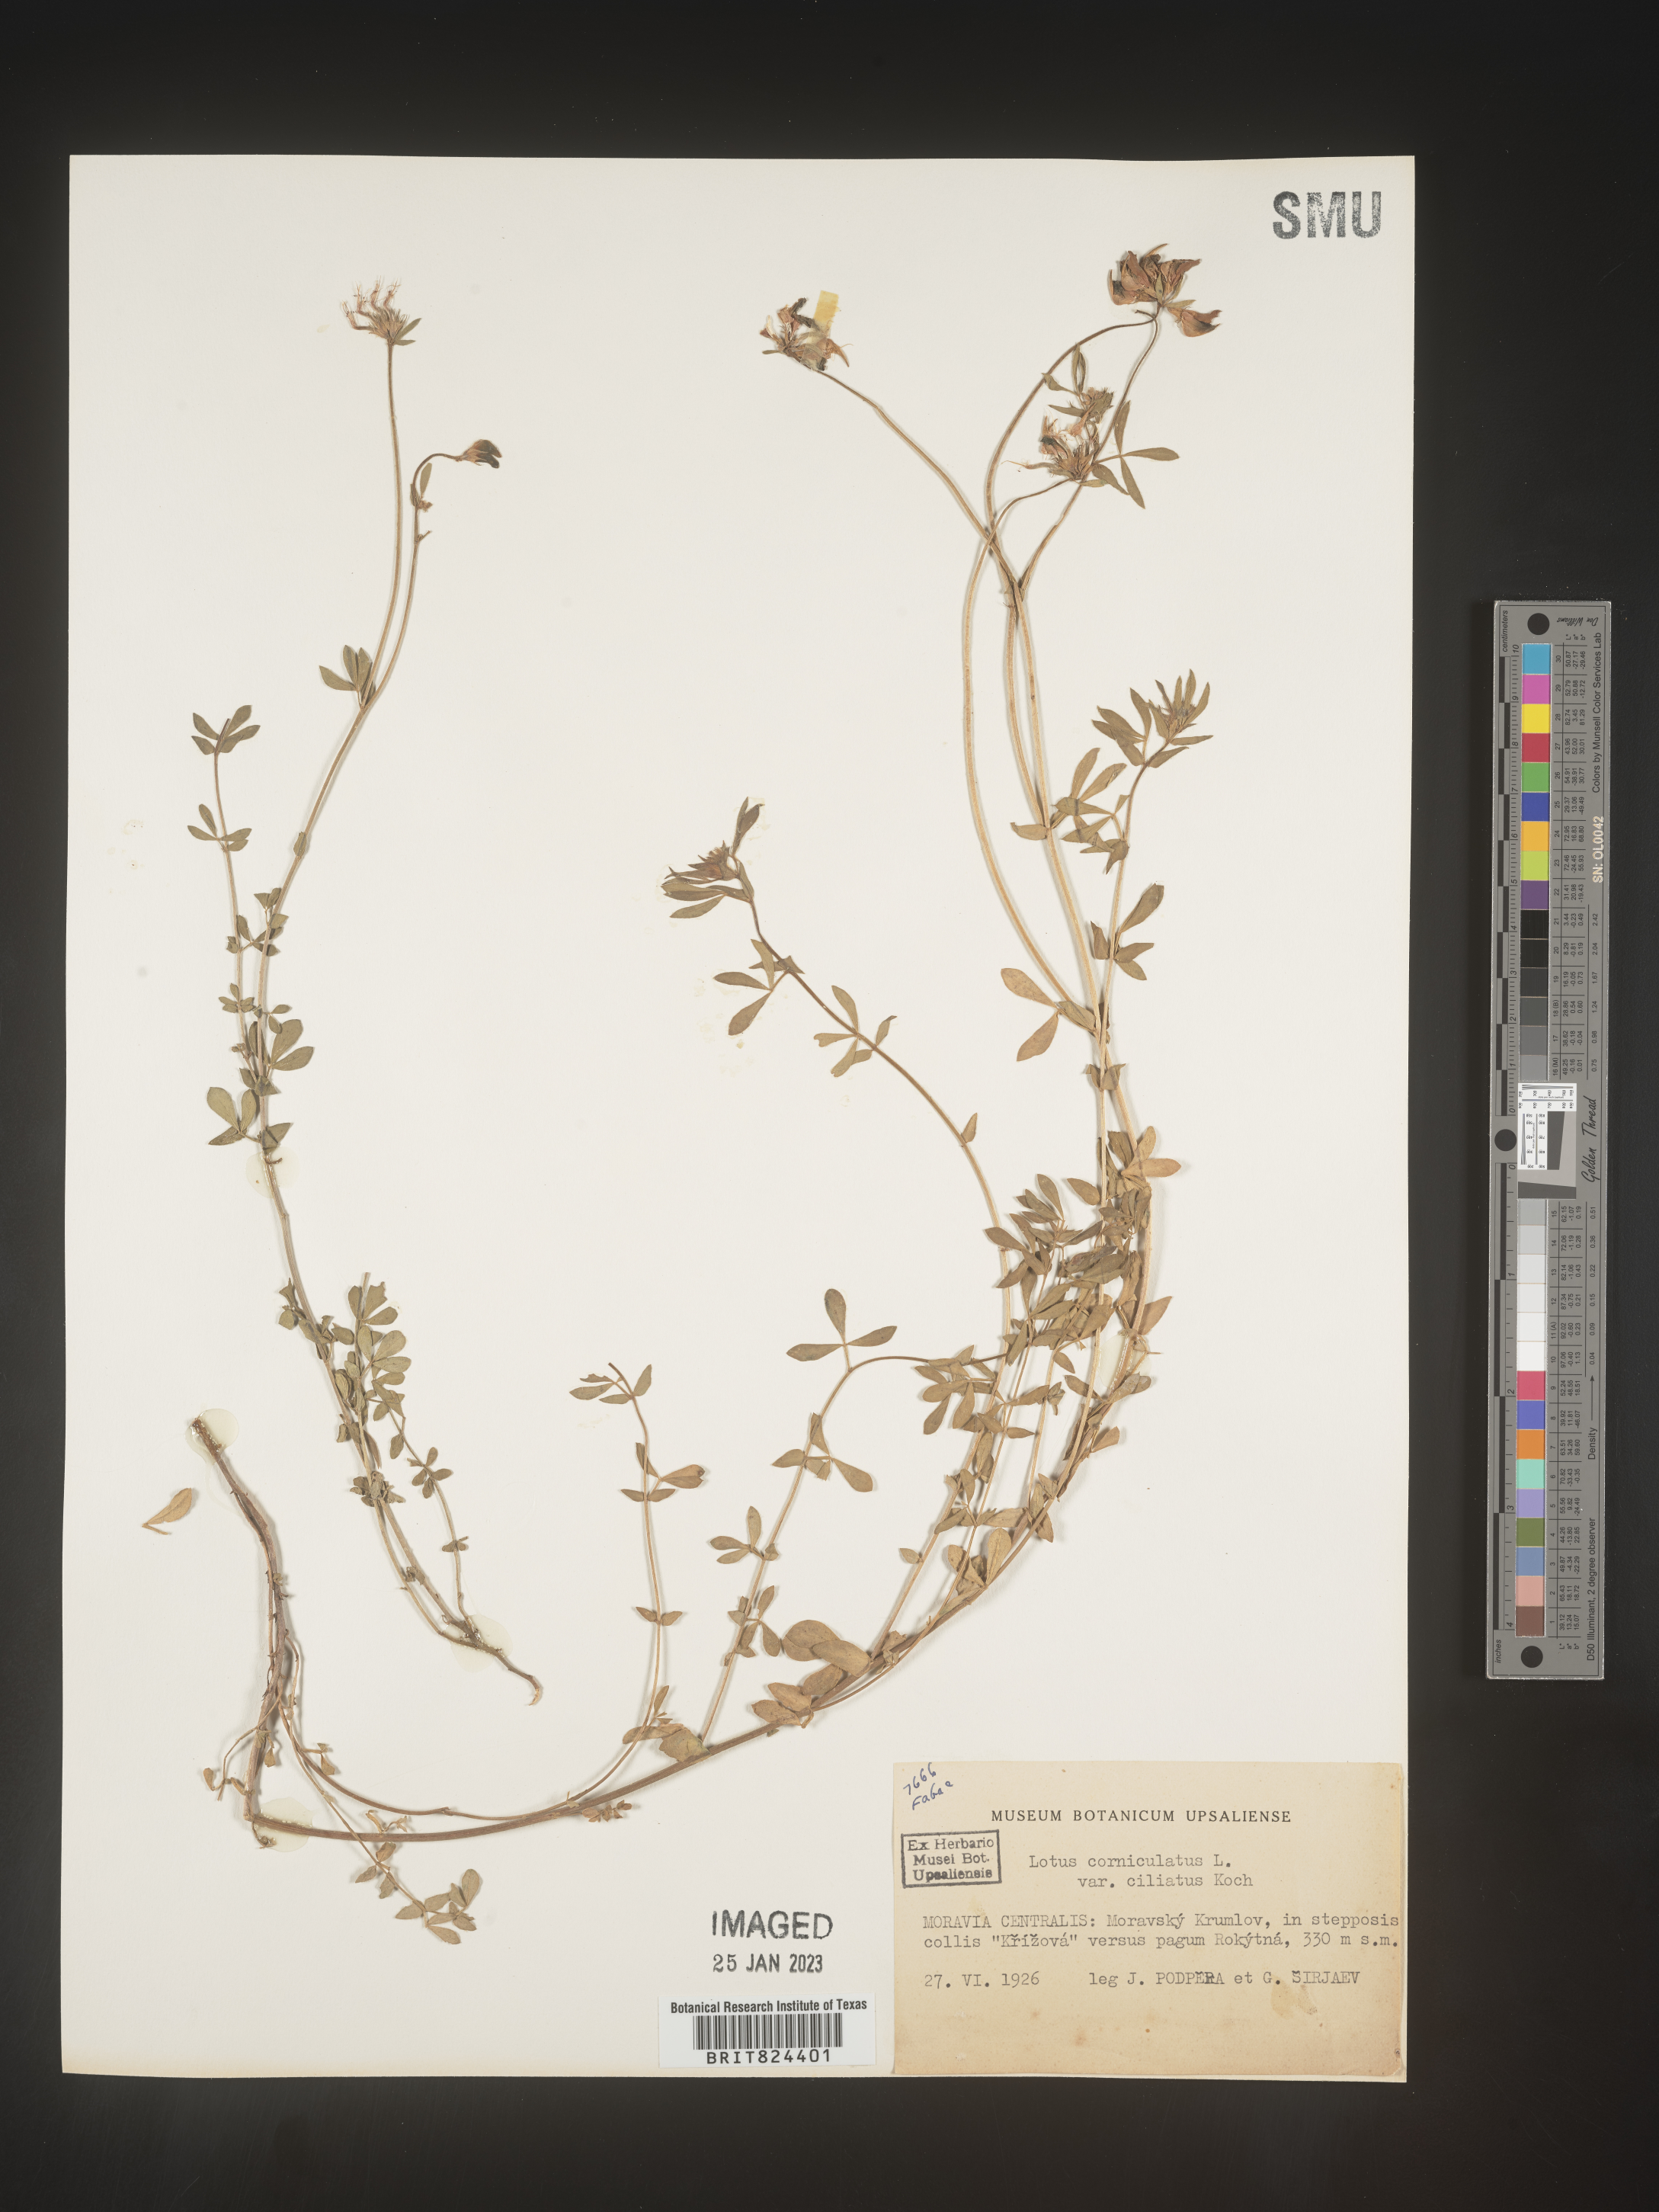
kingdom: Plantae
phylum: Tracheophyta
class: Magnoliopsida
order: Fabales
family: Fabaceae
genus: Lotus
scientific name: Lotus
